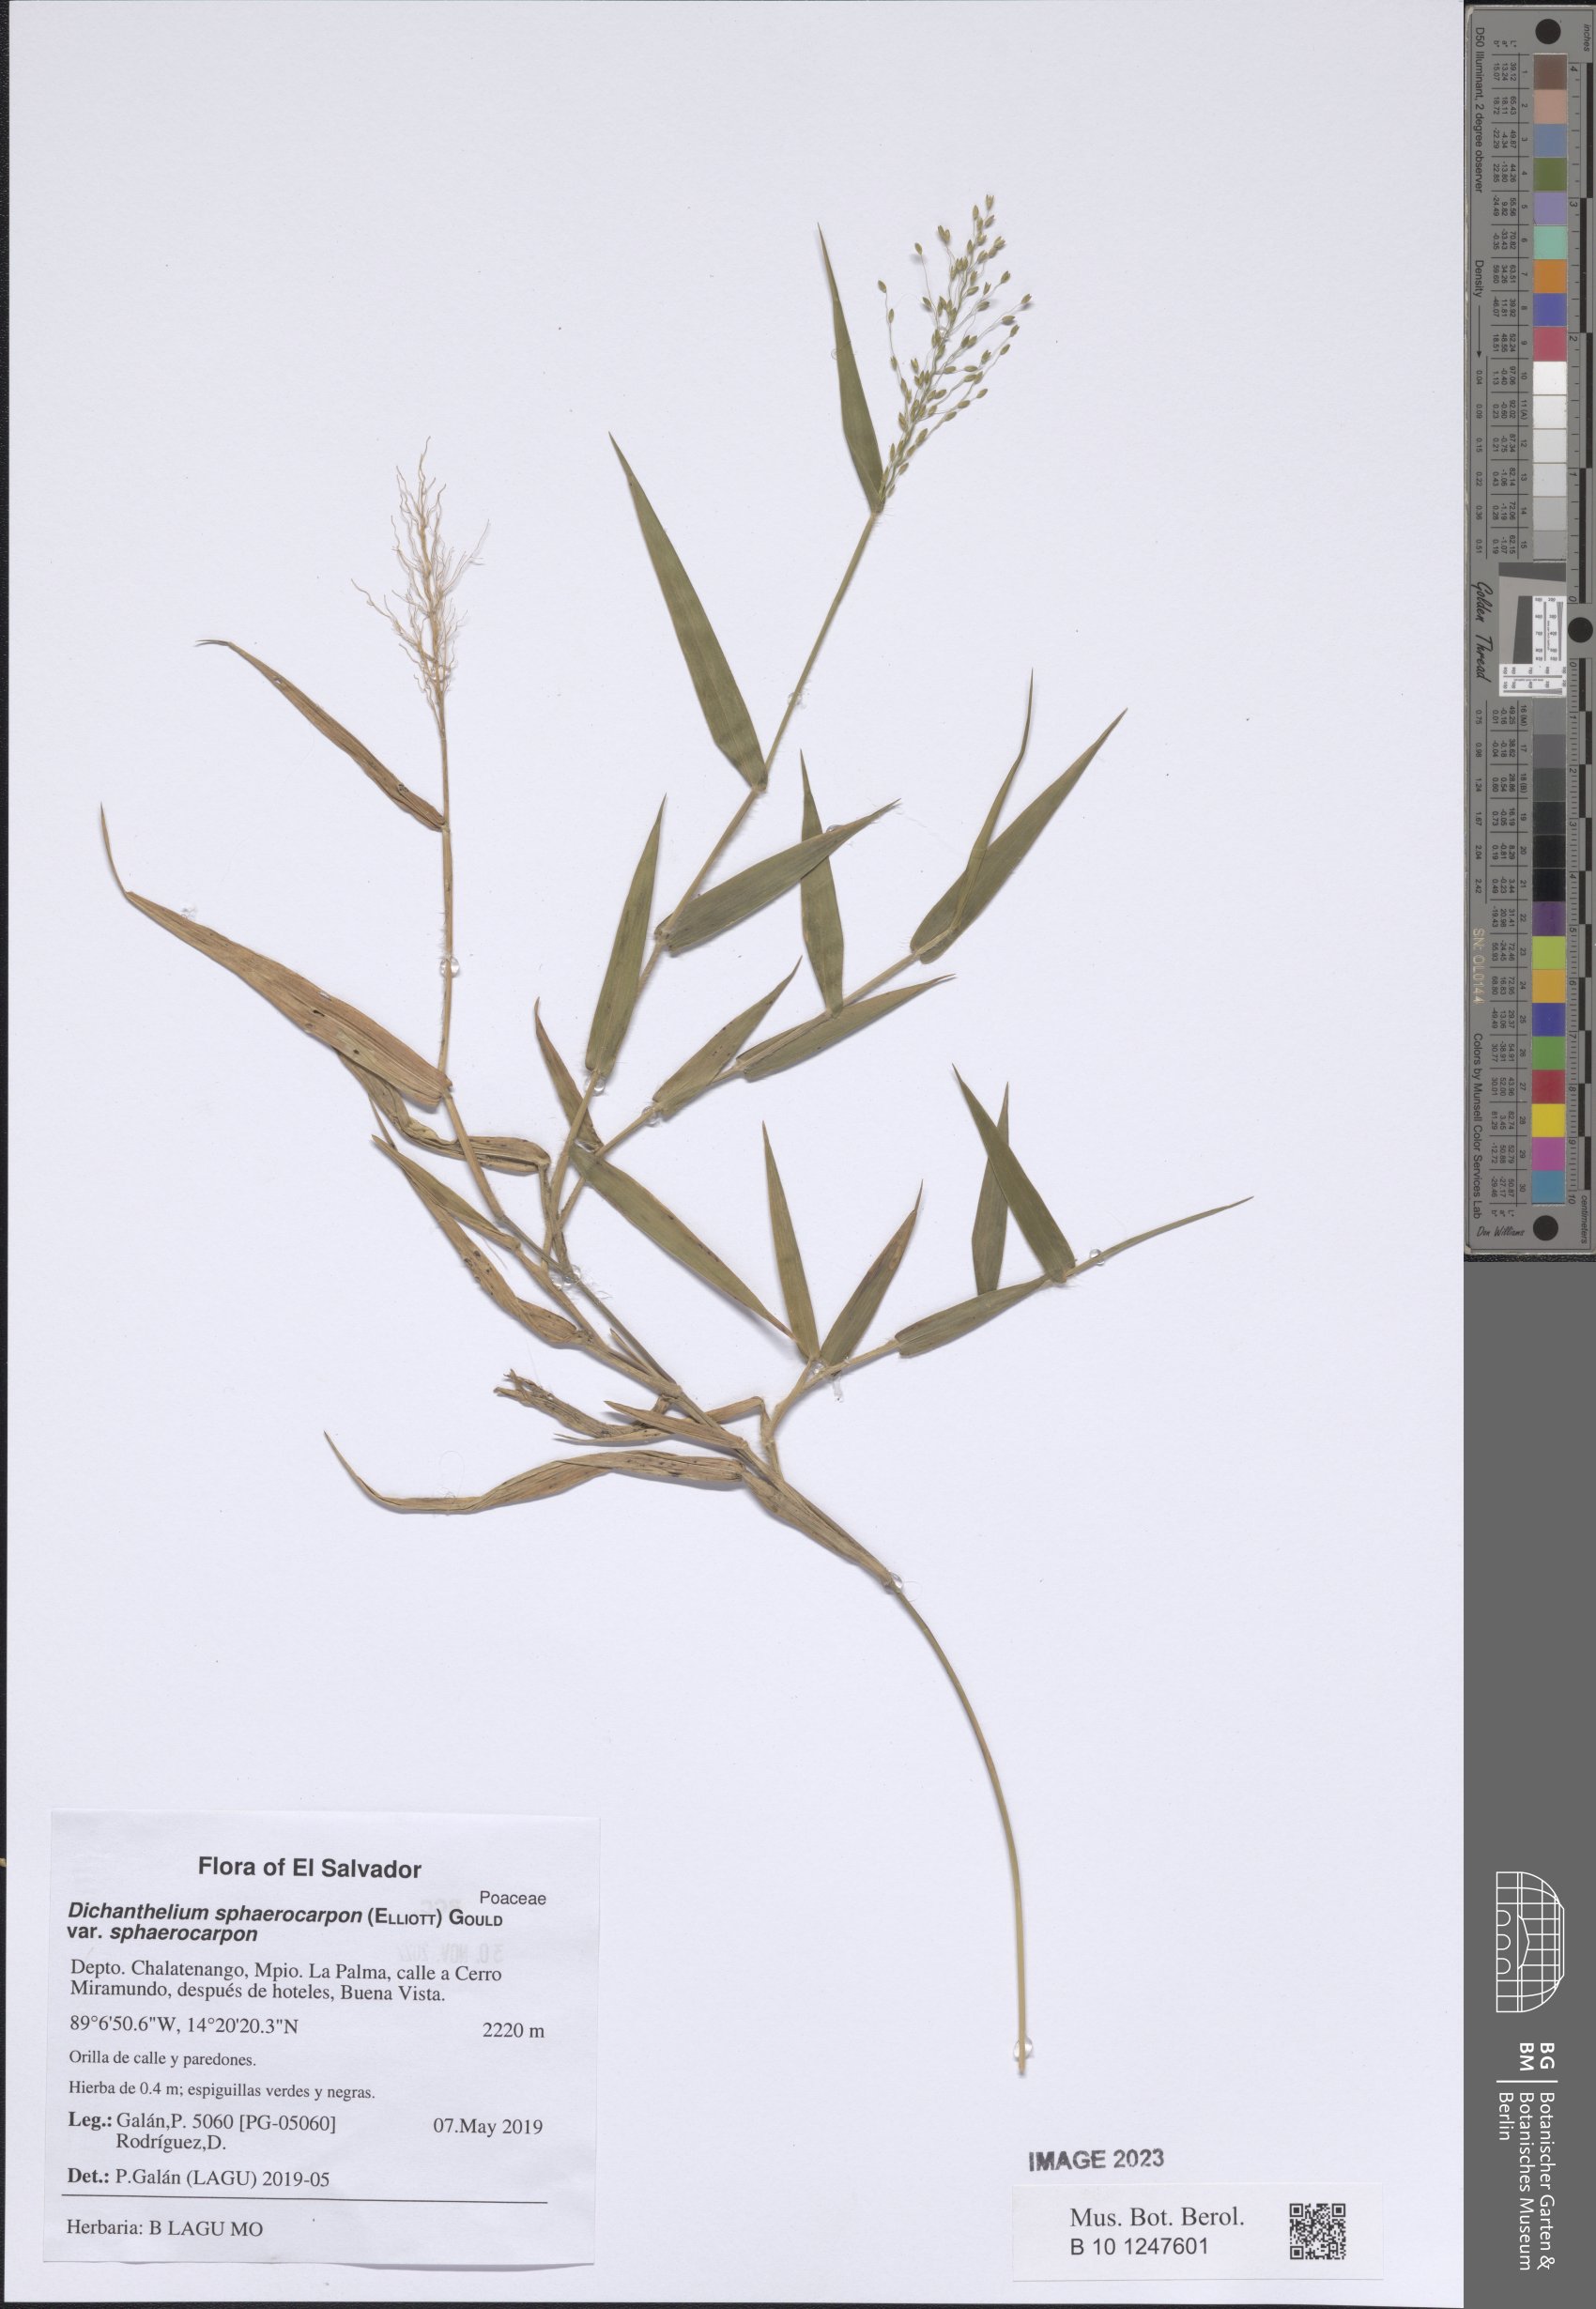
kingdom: Plantae
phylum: Tracheophyta
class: Liliopsida
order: Poales
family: Poaceae
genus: Dichanthelium
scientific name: Dichanthelium sphaerocarpon
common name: Round-fruited panicgrass
